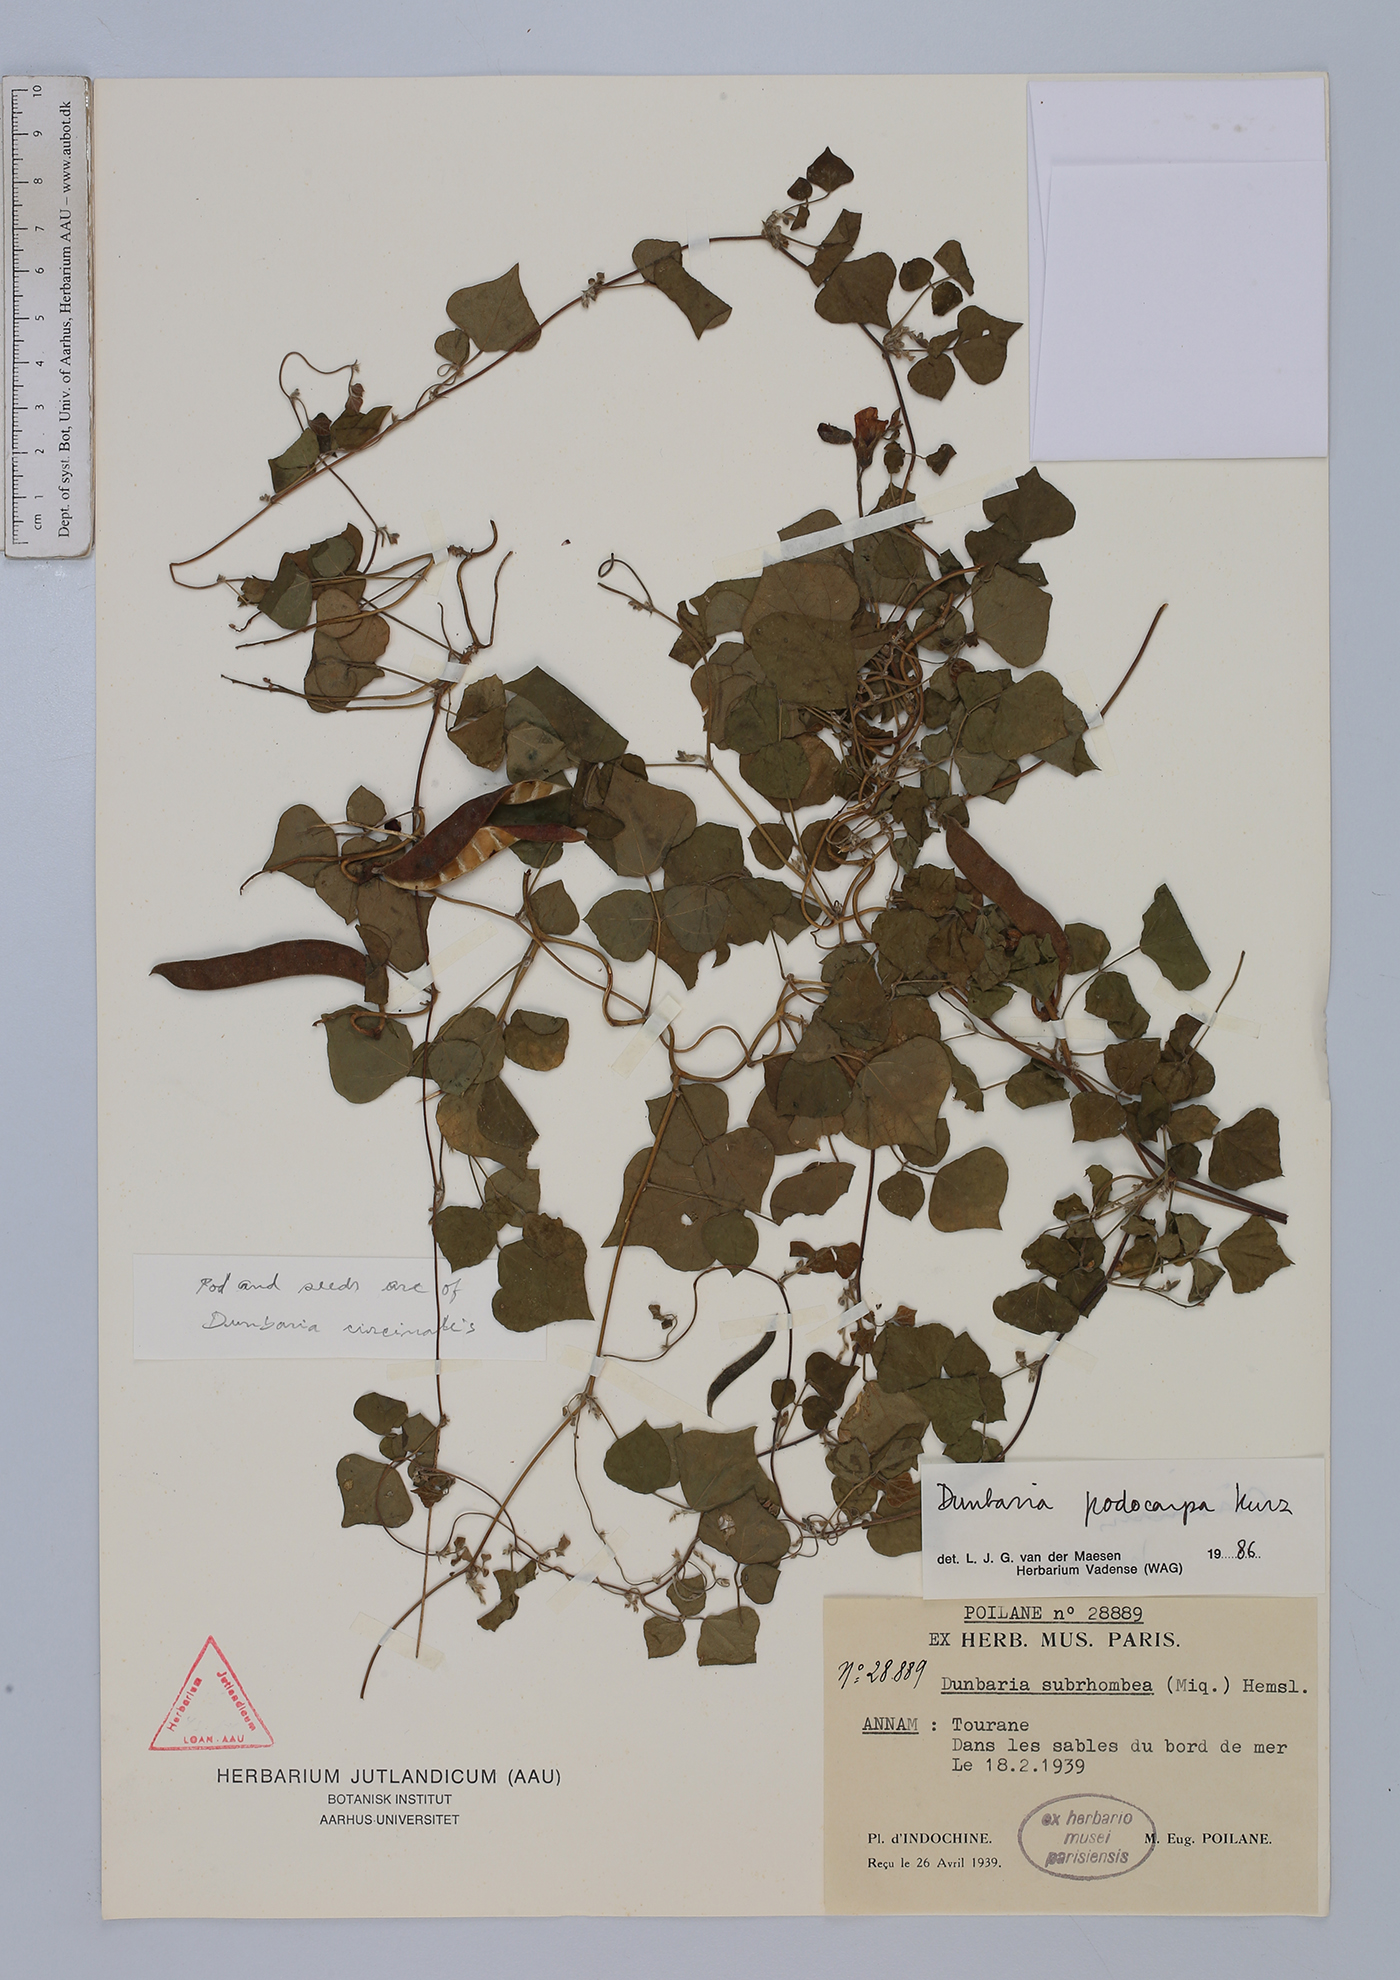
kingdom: Plantae
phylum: Tracheophyta
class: Magnoliopsida
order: Fabales
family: Fabaceae
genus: Dunbaria
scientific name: Dunbaria podocarpa
